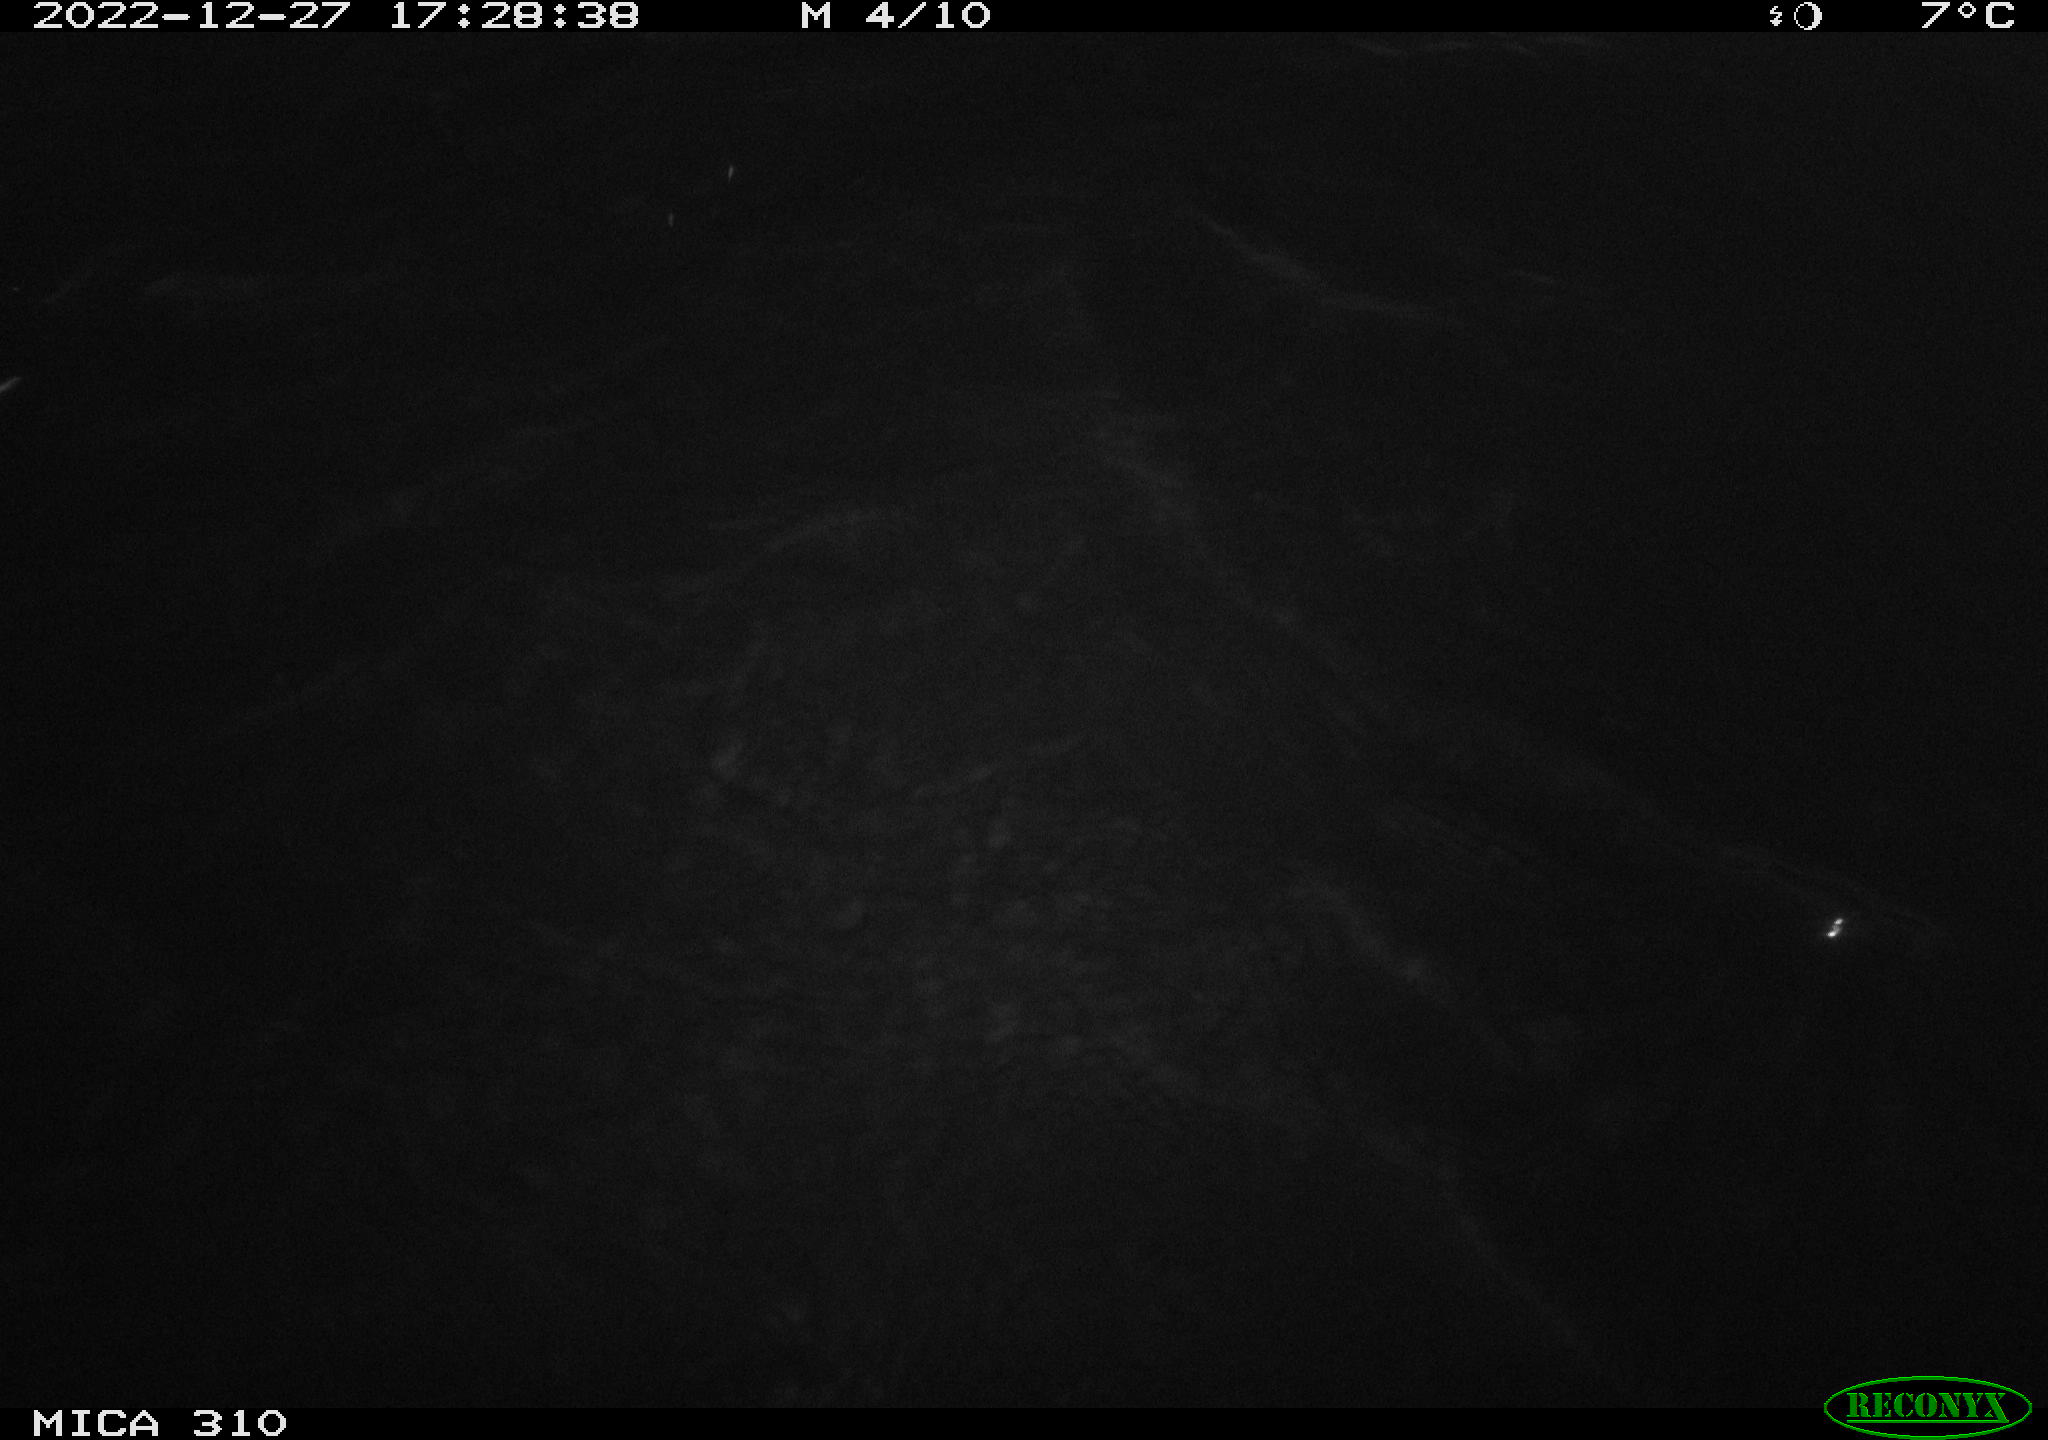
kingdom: Animalia
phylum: Chordata
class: Aves
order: Anseriformes
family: Anatidae
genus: Anas
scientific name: Anas
